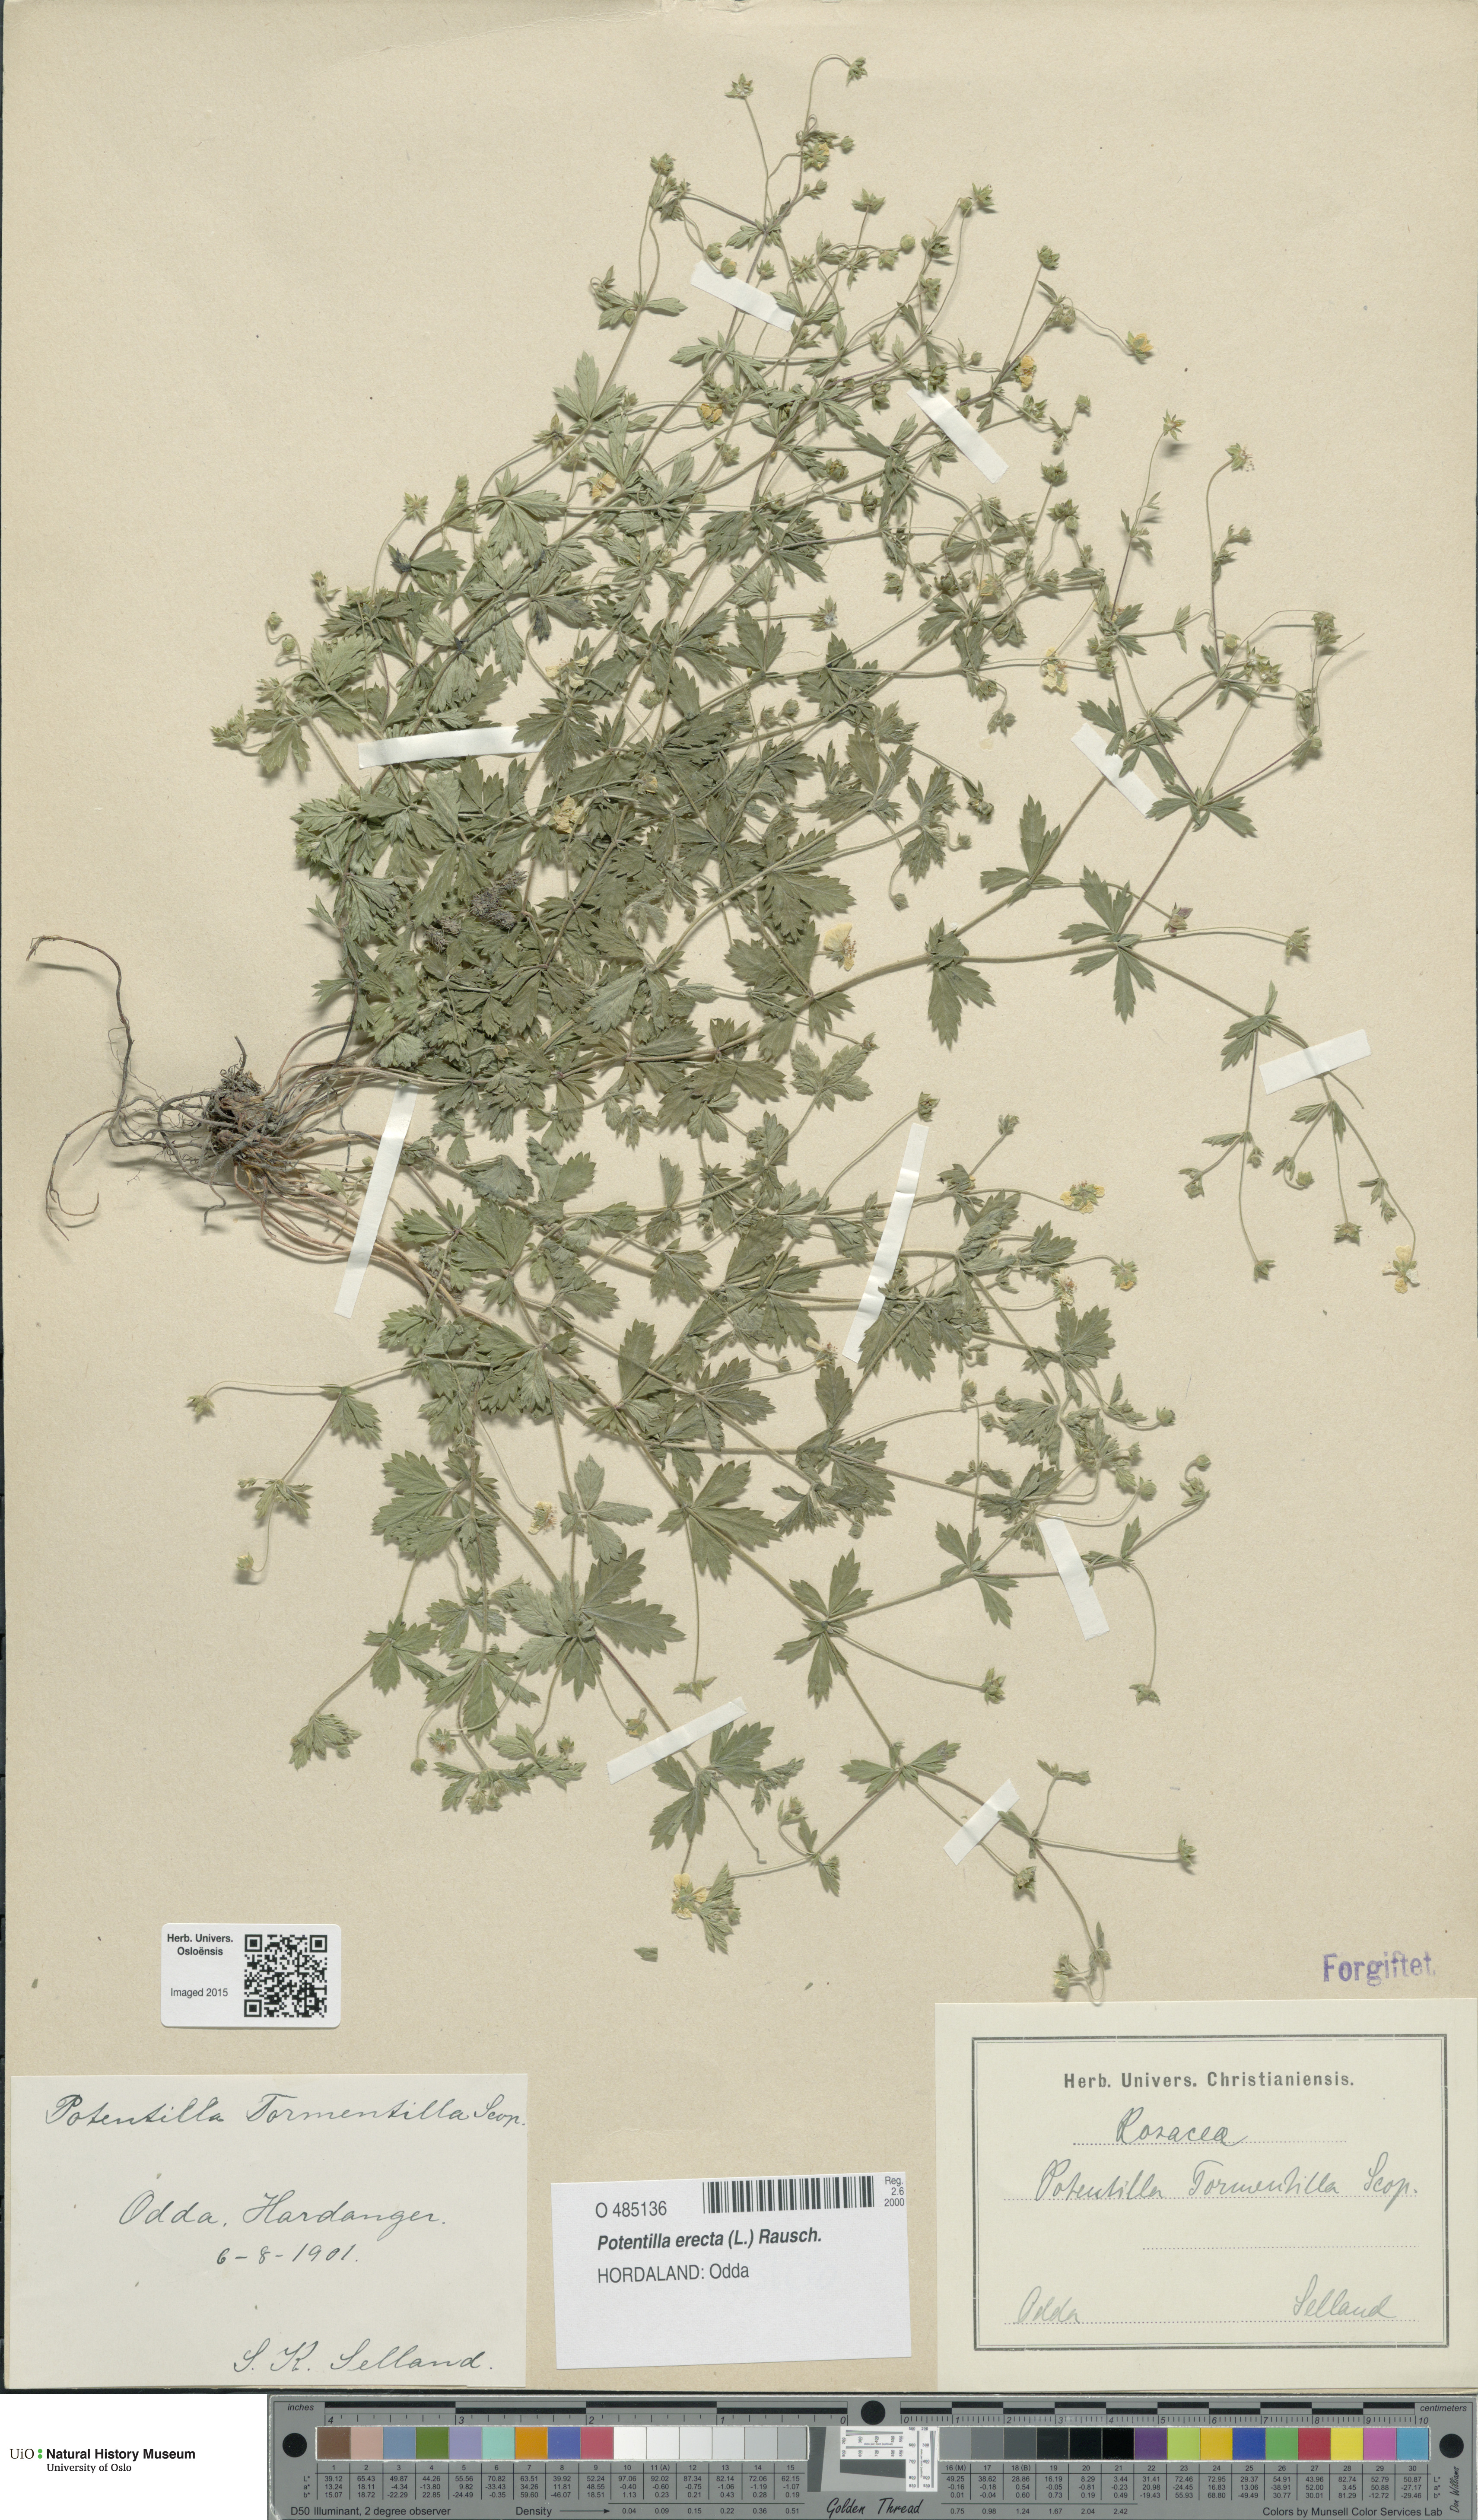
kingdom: Plantae
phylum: Tracheophyta
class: Magnoliopsida
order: Rosales
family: Rosaceae
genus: Potentilla
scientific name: Potentilla erecta
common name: Tormentil
